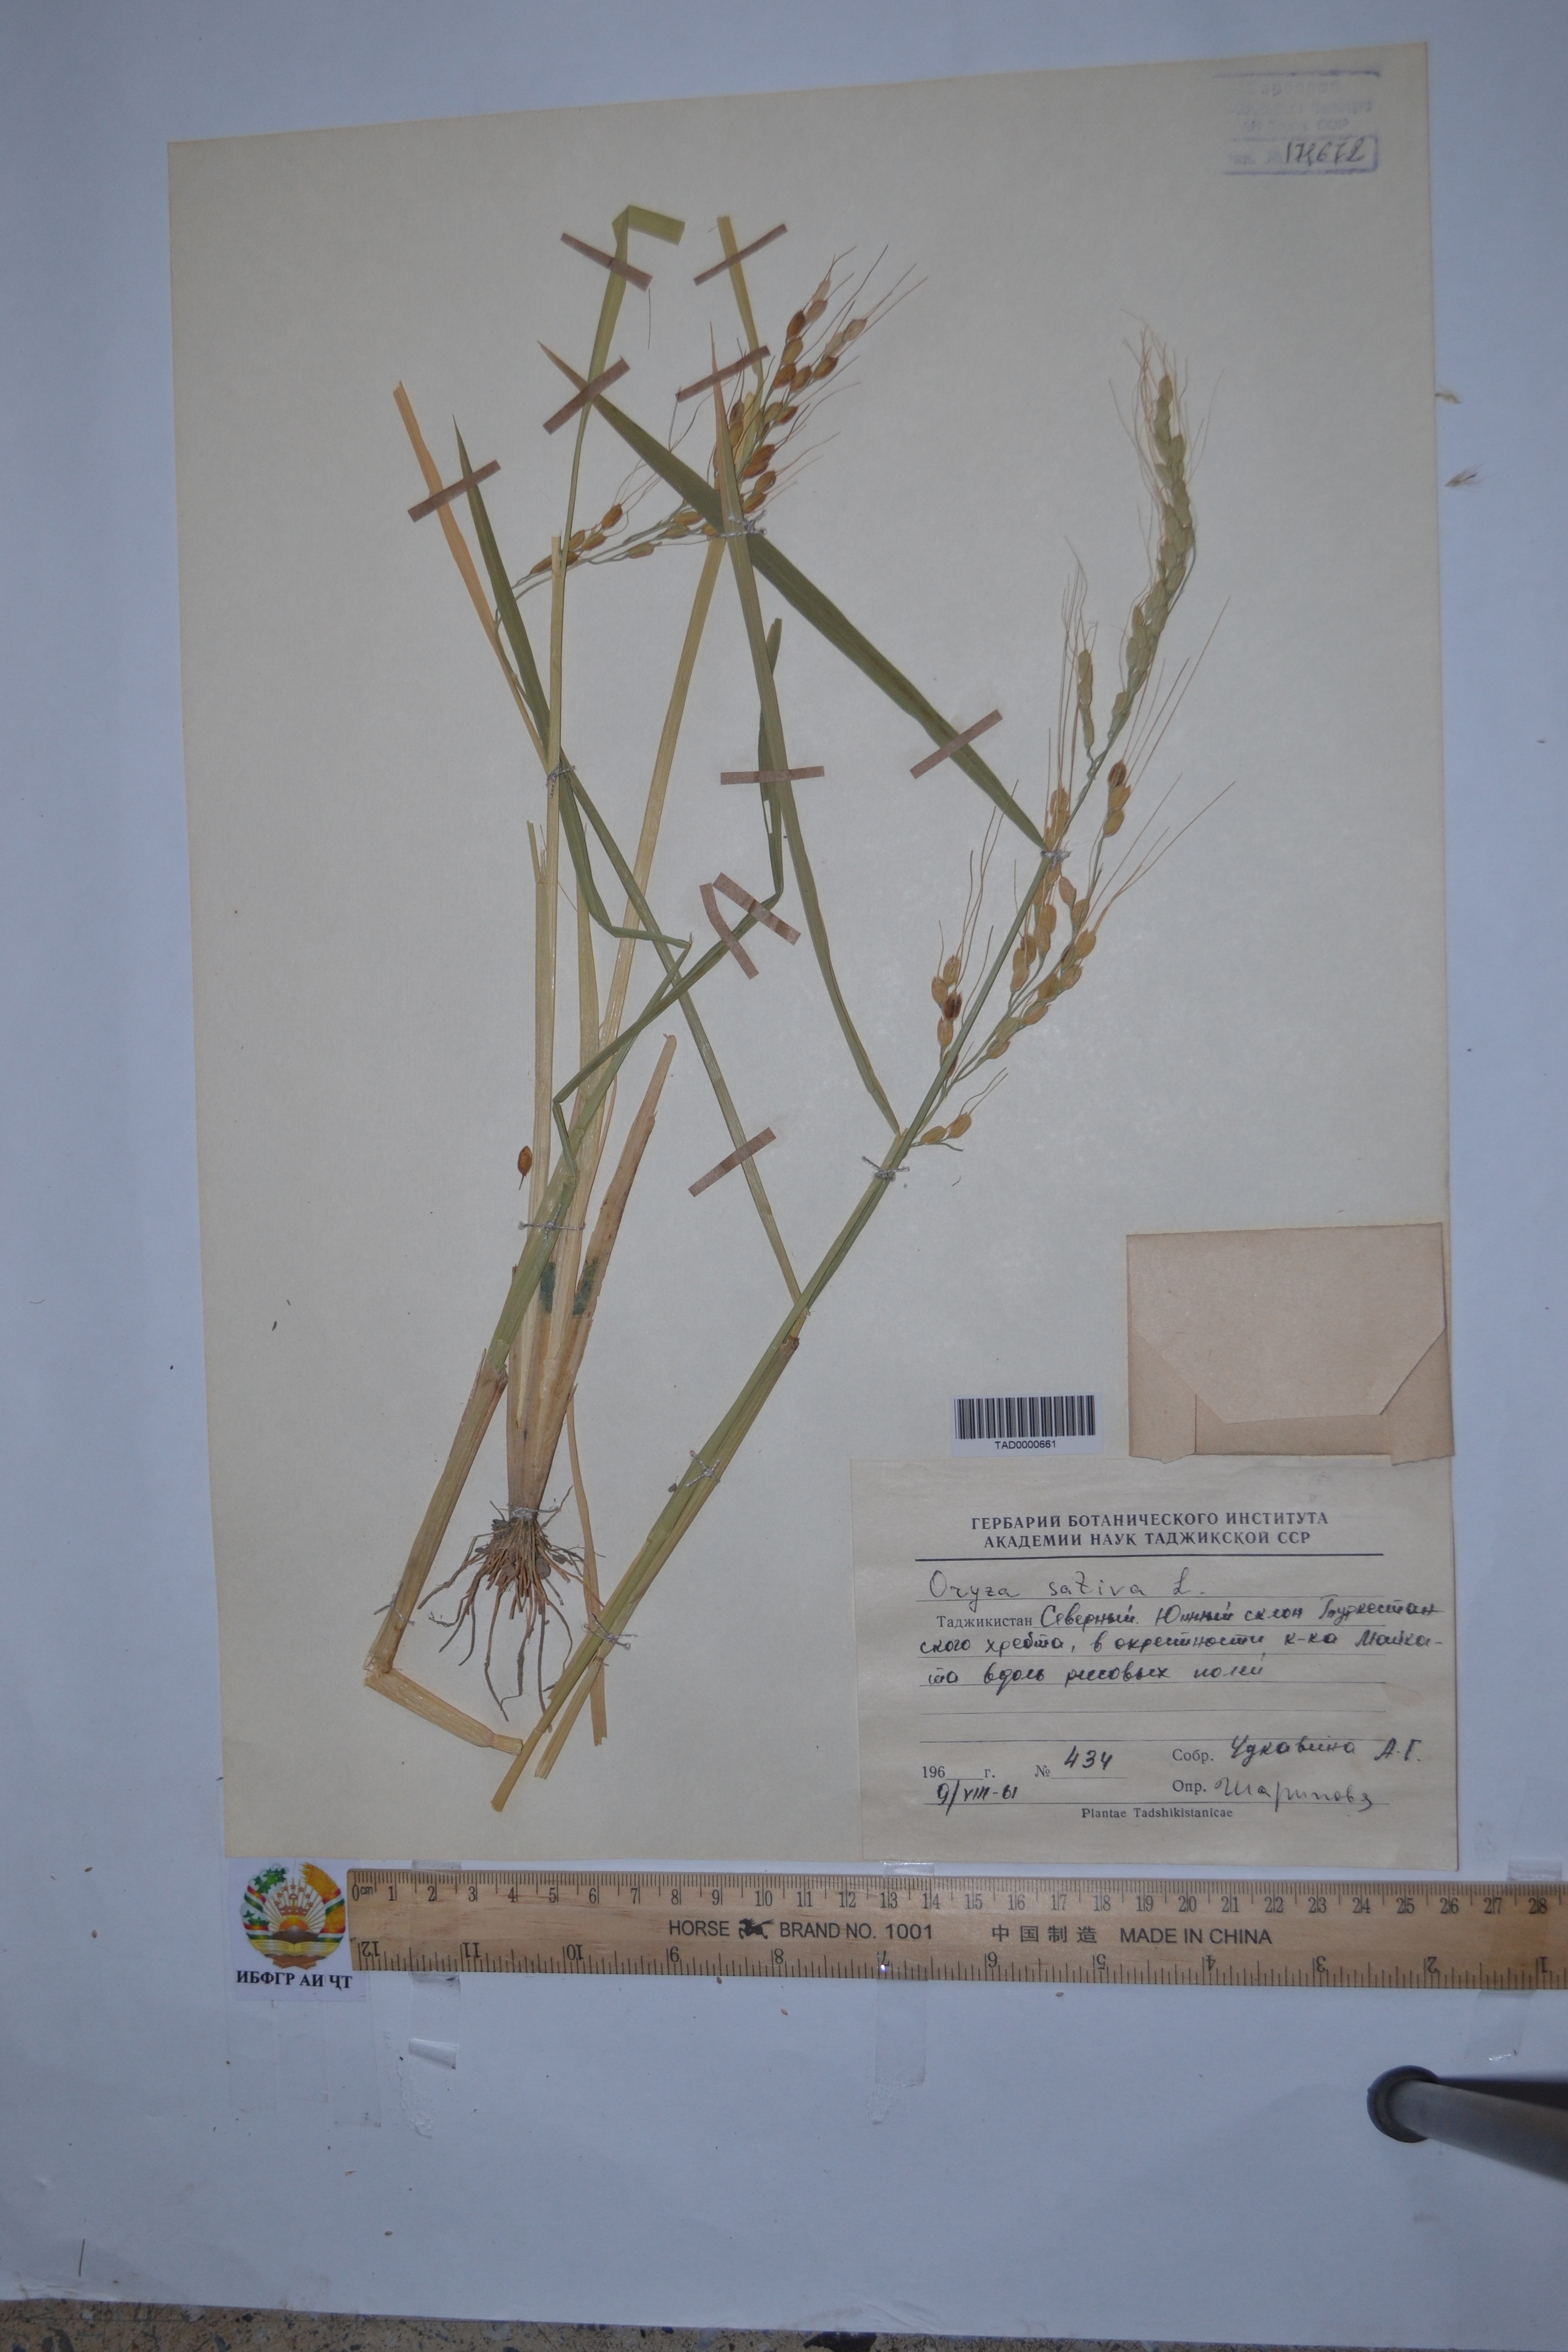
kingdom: Plantae
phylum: Tracheophyta
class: Liliopsida
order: Poales
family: Poaceae
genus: Oryza
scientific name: Oryza sativa
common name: Rice
